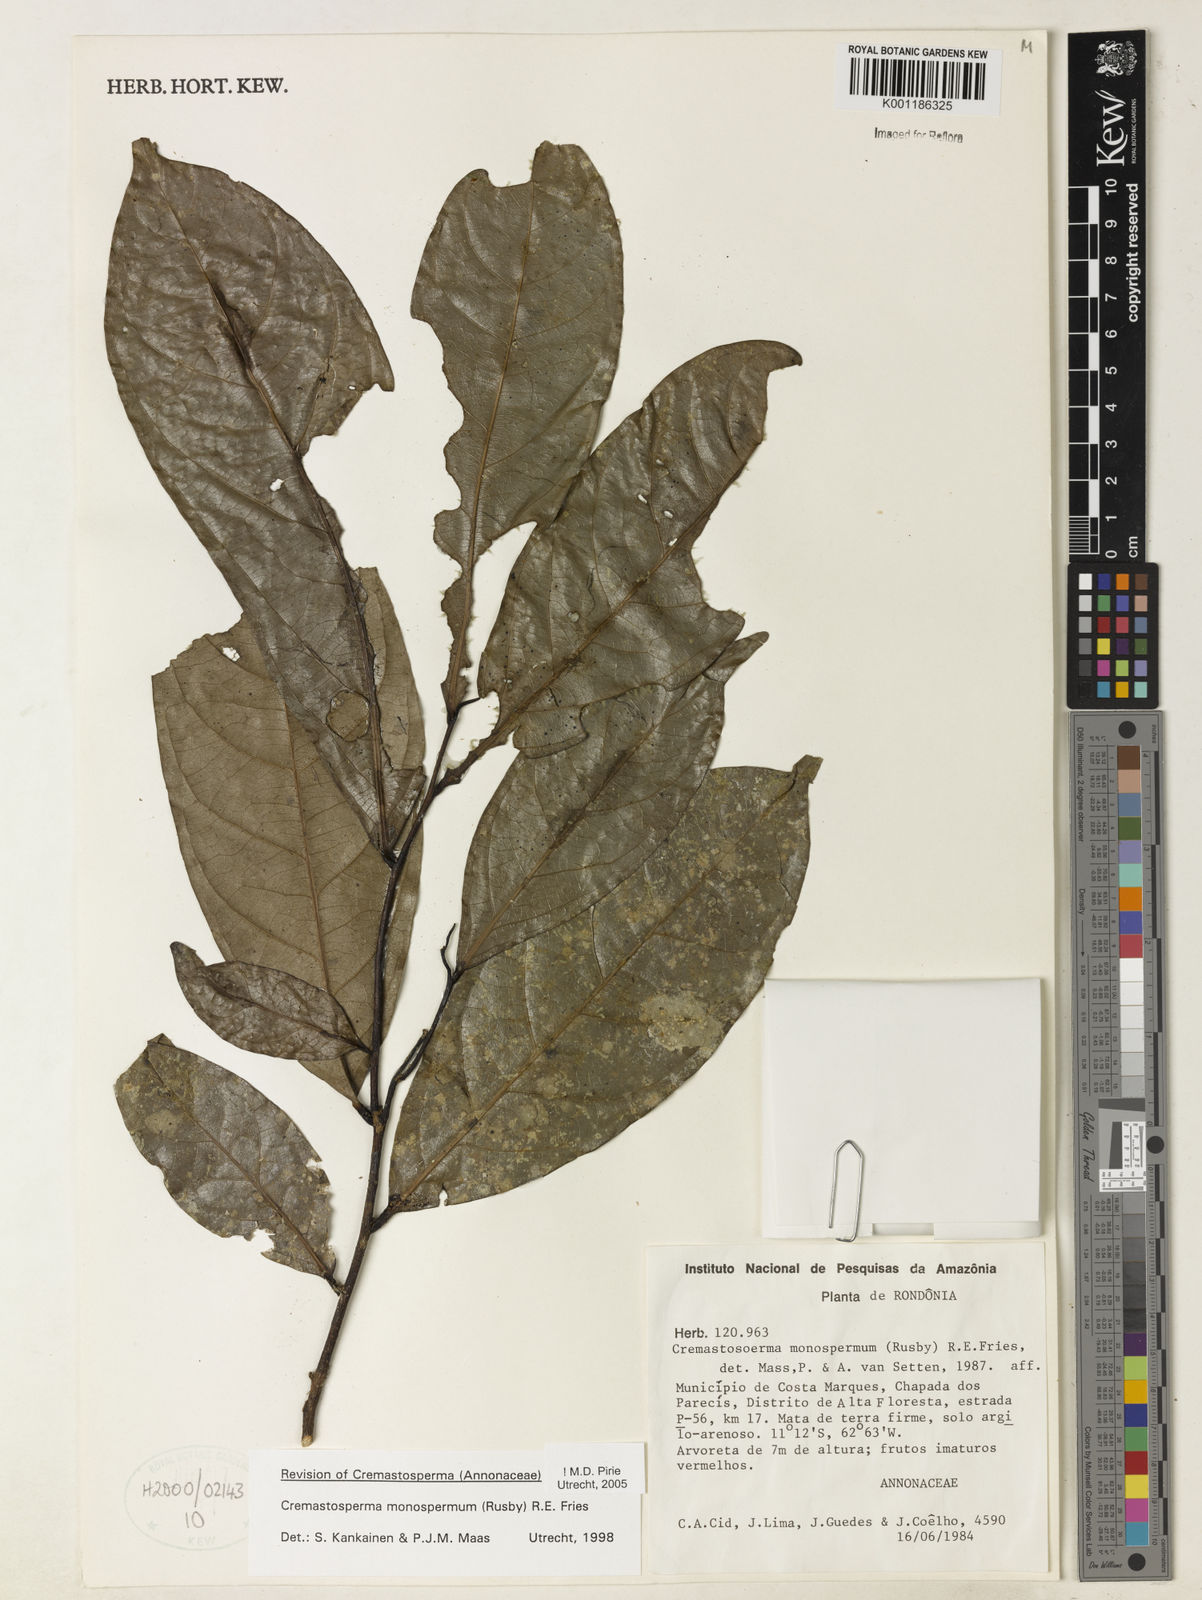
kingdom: Plantae
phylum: Tracheophyta
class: Magnoliopsida
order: Magnoliales
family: Annonaceae
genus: Cremastosperma
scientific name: Cremastosperma monospermum
